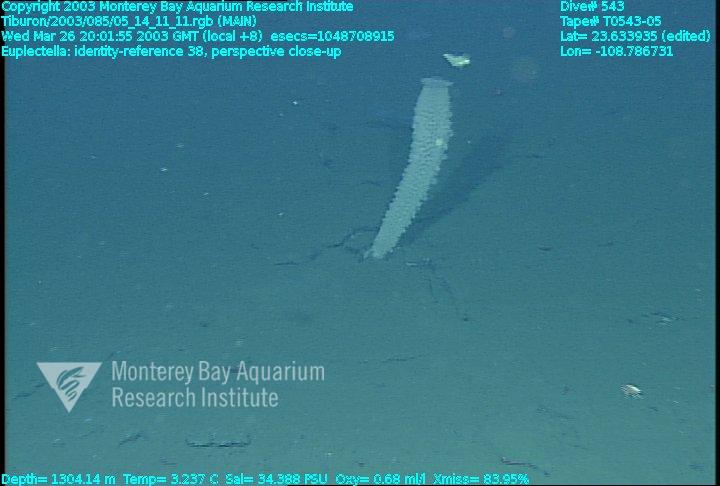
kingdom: Animalia
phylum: Porifera
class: Hexactinellida
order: Lyssacinosida
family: Euplectellidae
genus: Euplectella
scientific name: Euplectella
